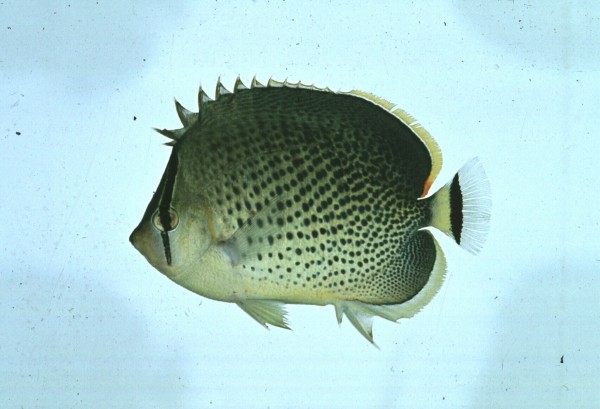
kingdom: Animalia
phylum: Chordata
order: Perciformes
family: Chaetodontidae
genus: Chaetodon
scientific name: Chaetodon guttatissimus
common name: Spotted butterflyfish
